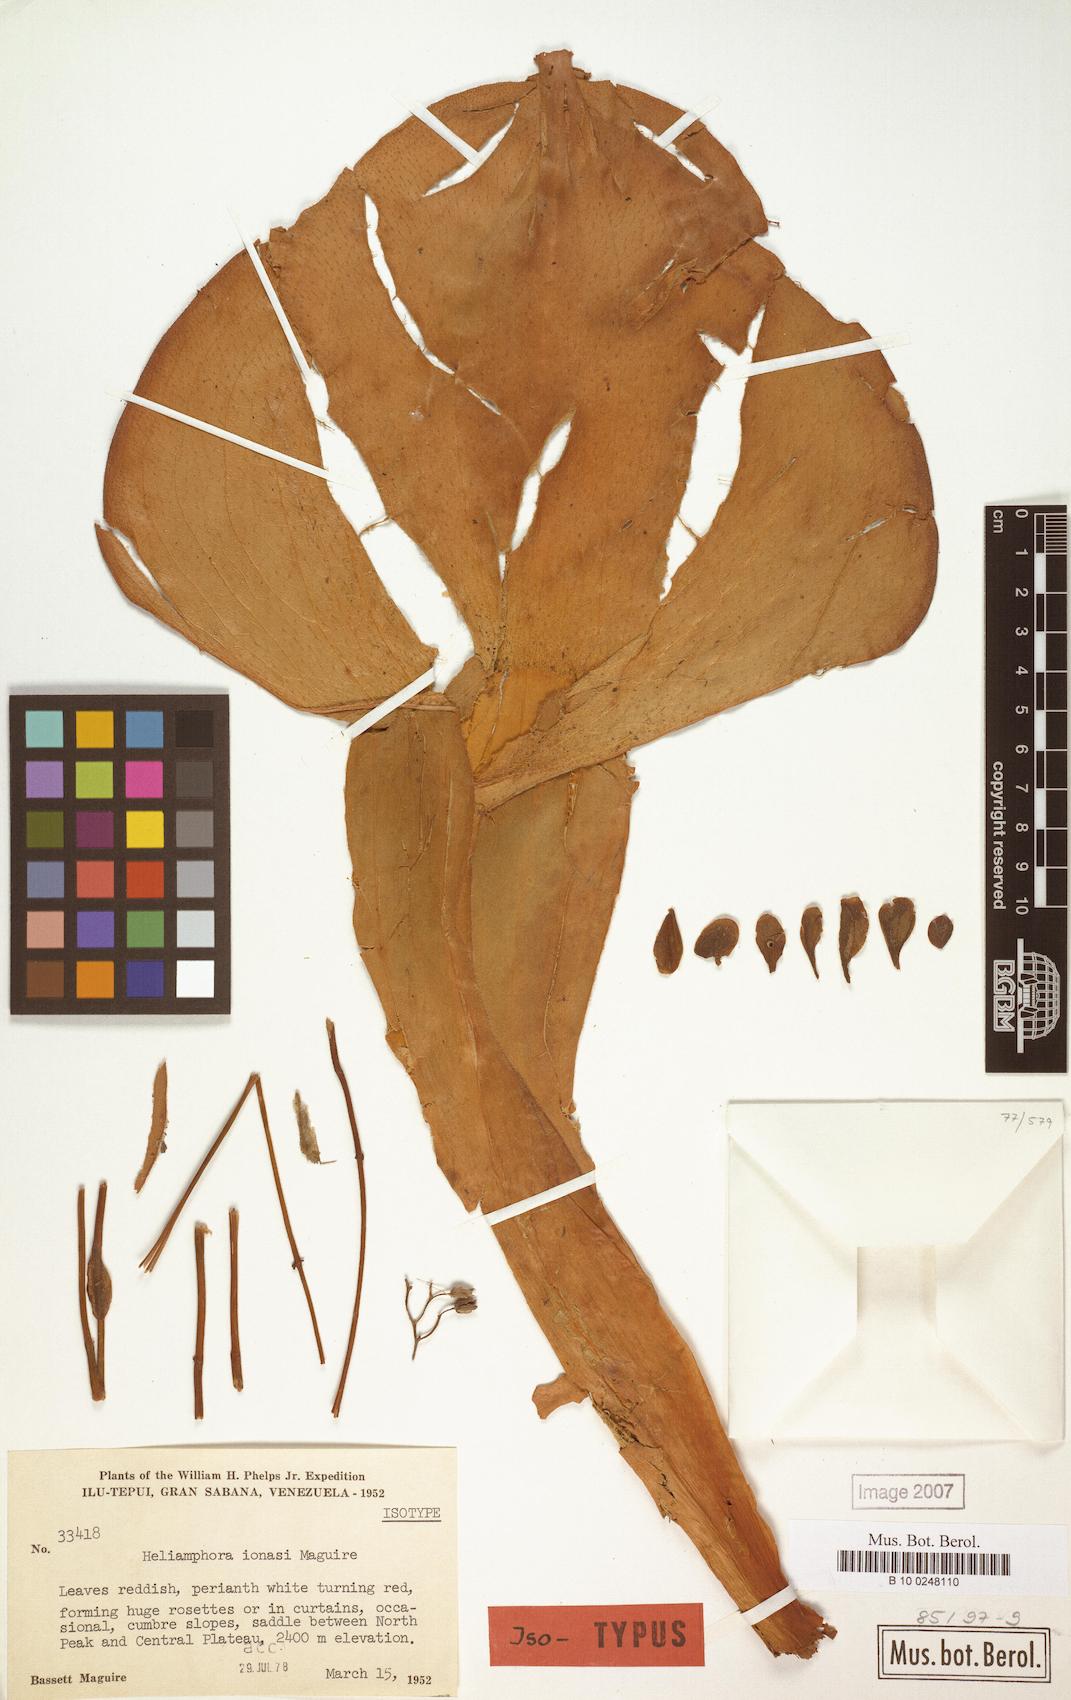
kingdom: Plantae
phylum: Tracheophyta
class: Magnoliopsida
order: Ericales
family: Sarraceniaceae
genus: Heliamphora
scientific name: Heliamphora ionasi
